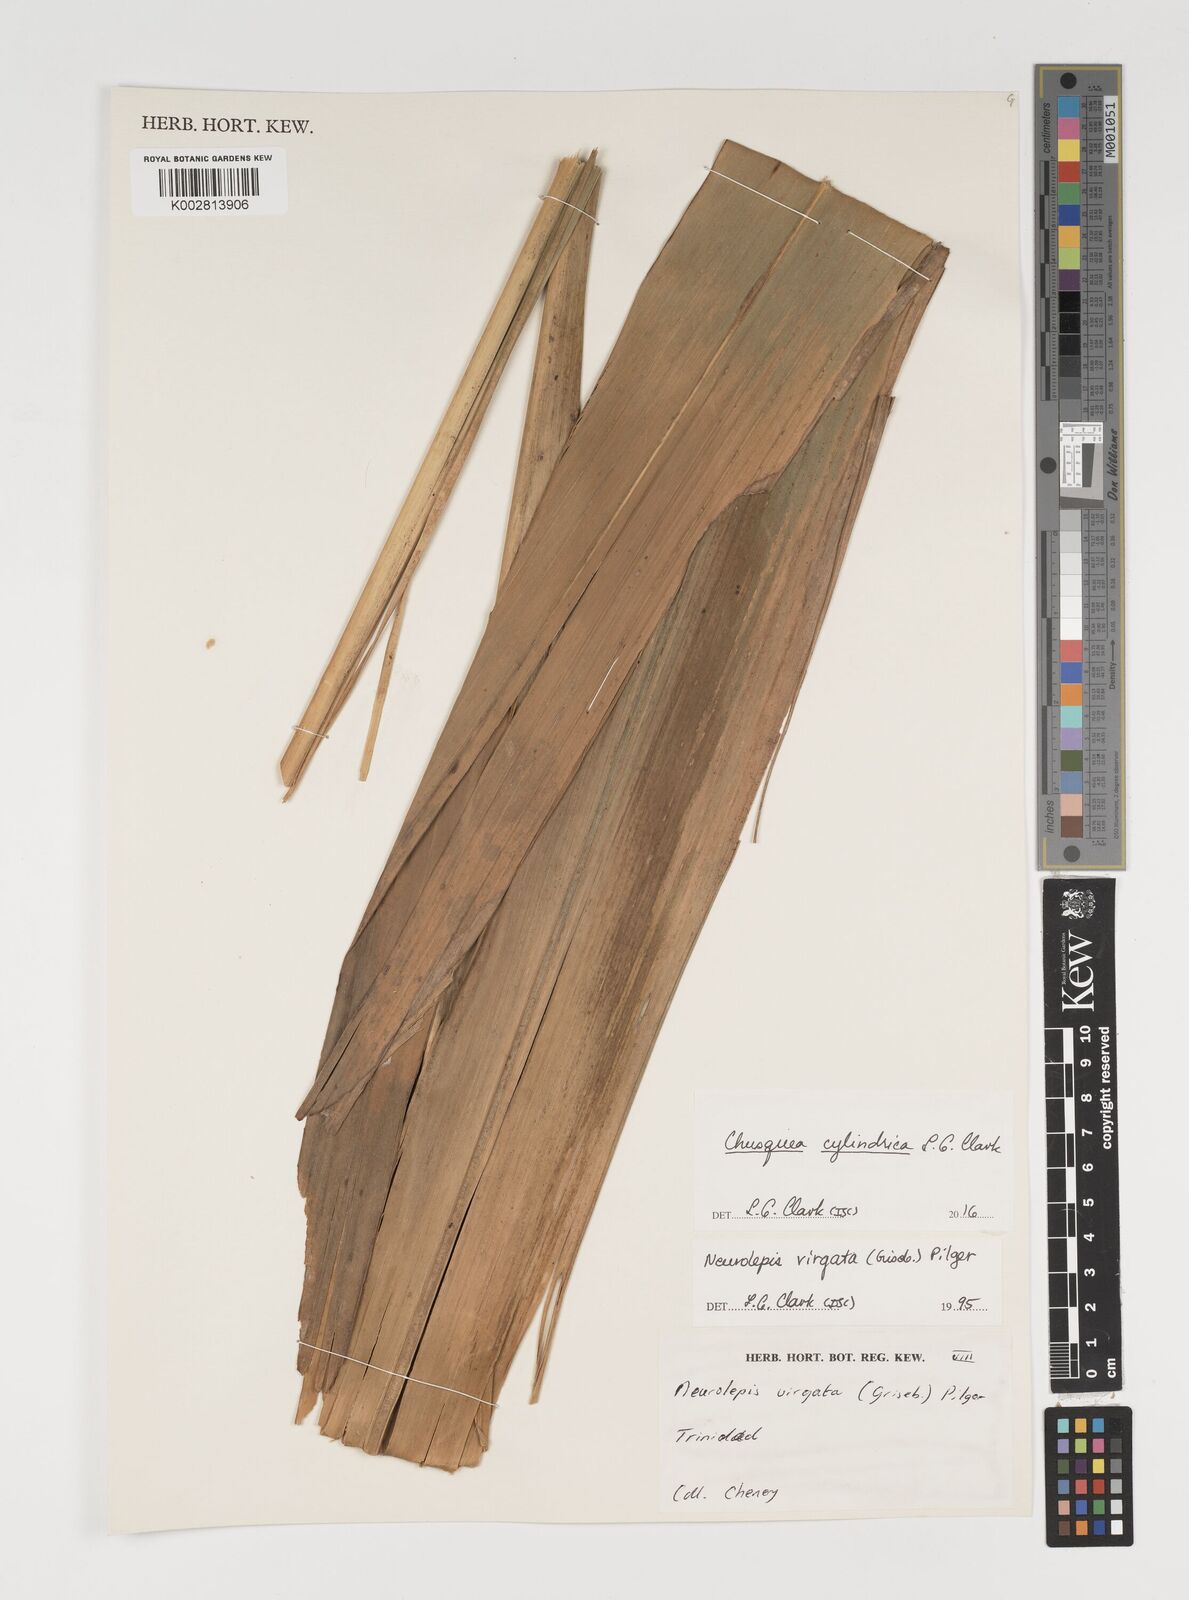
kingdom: Plantae
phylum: Tracheophyta
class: Liliopsida
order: Poales
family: Poaceae
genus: Chusquea
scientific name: Chusquea cylindrica
